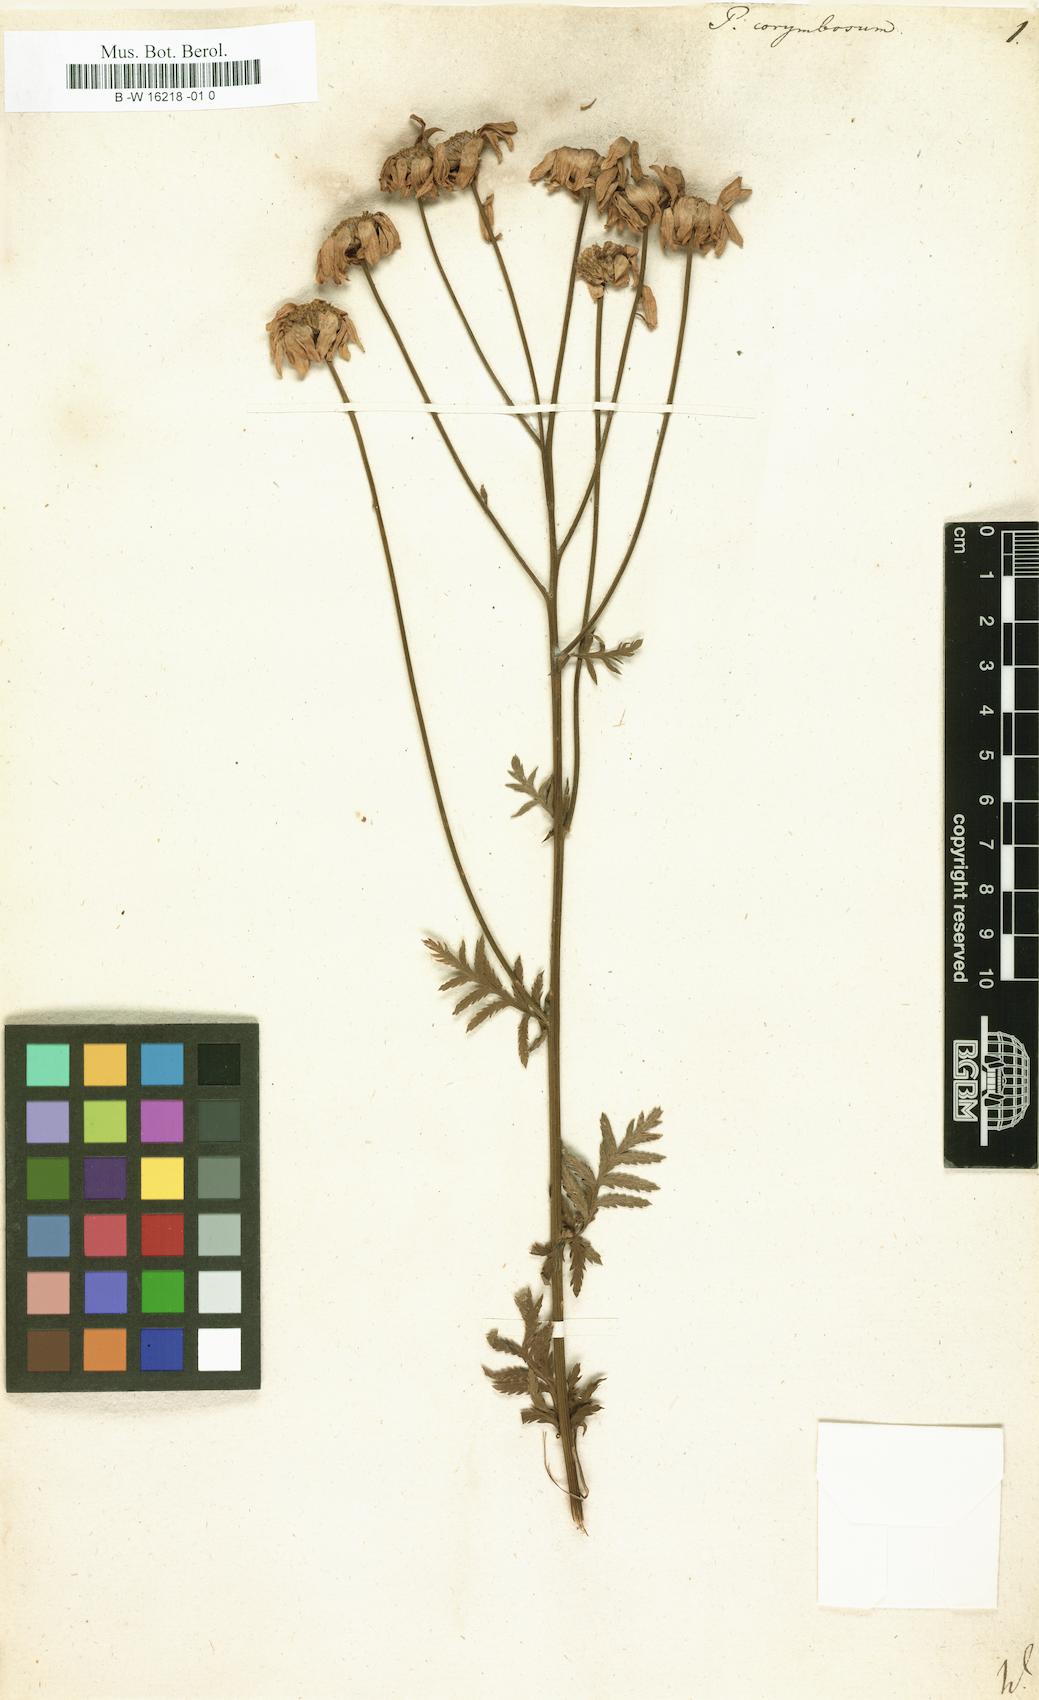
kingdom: Plantae
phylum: Tracheophyta
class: Magnoliopsida
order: Asterales
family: Asteraceae
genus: Tanacetum
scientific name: Tanacetum corymbosum
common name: Scentless feverfew
